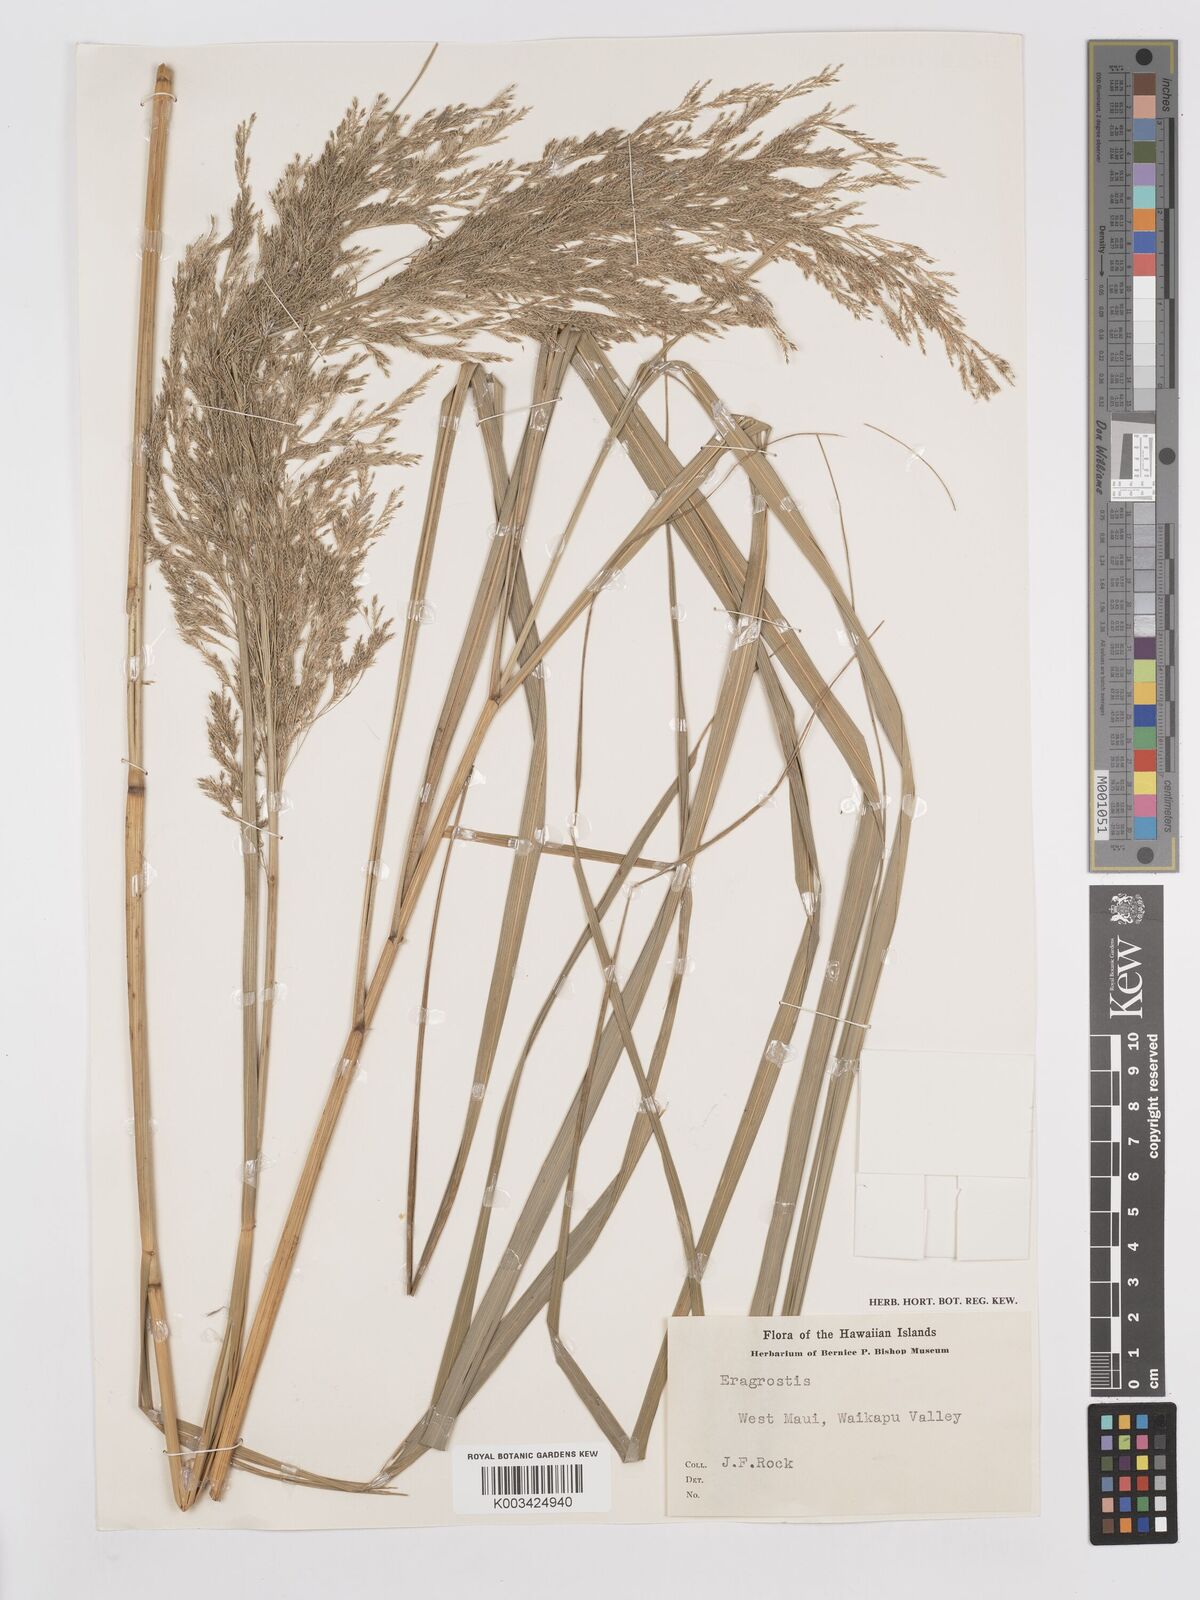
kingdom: Plantae
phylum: Tracheophyta
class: Liliopsida
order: Poales
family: Poaceae
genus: Eragrostis
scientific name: Eragrostis grandis
